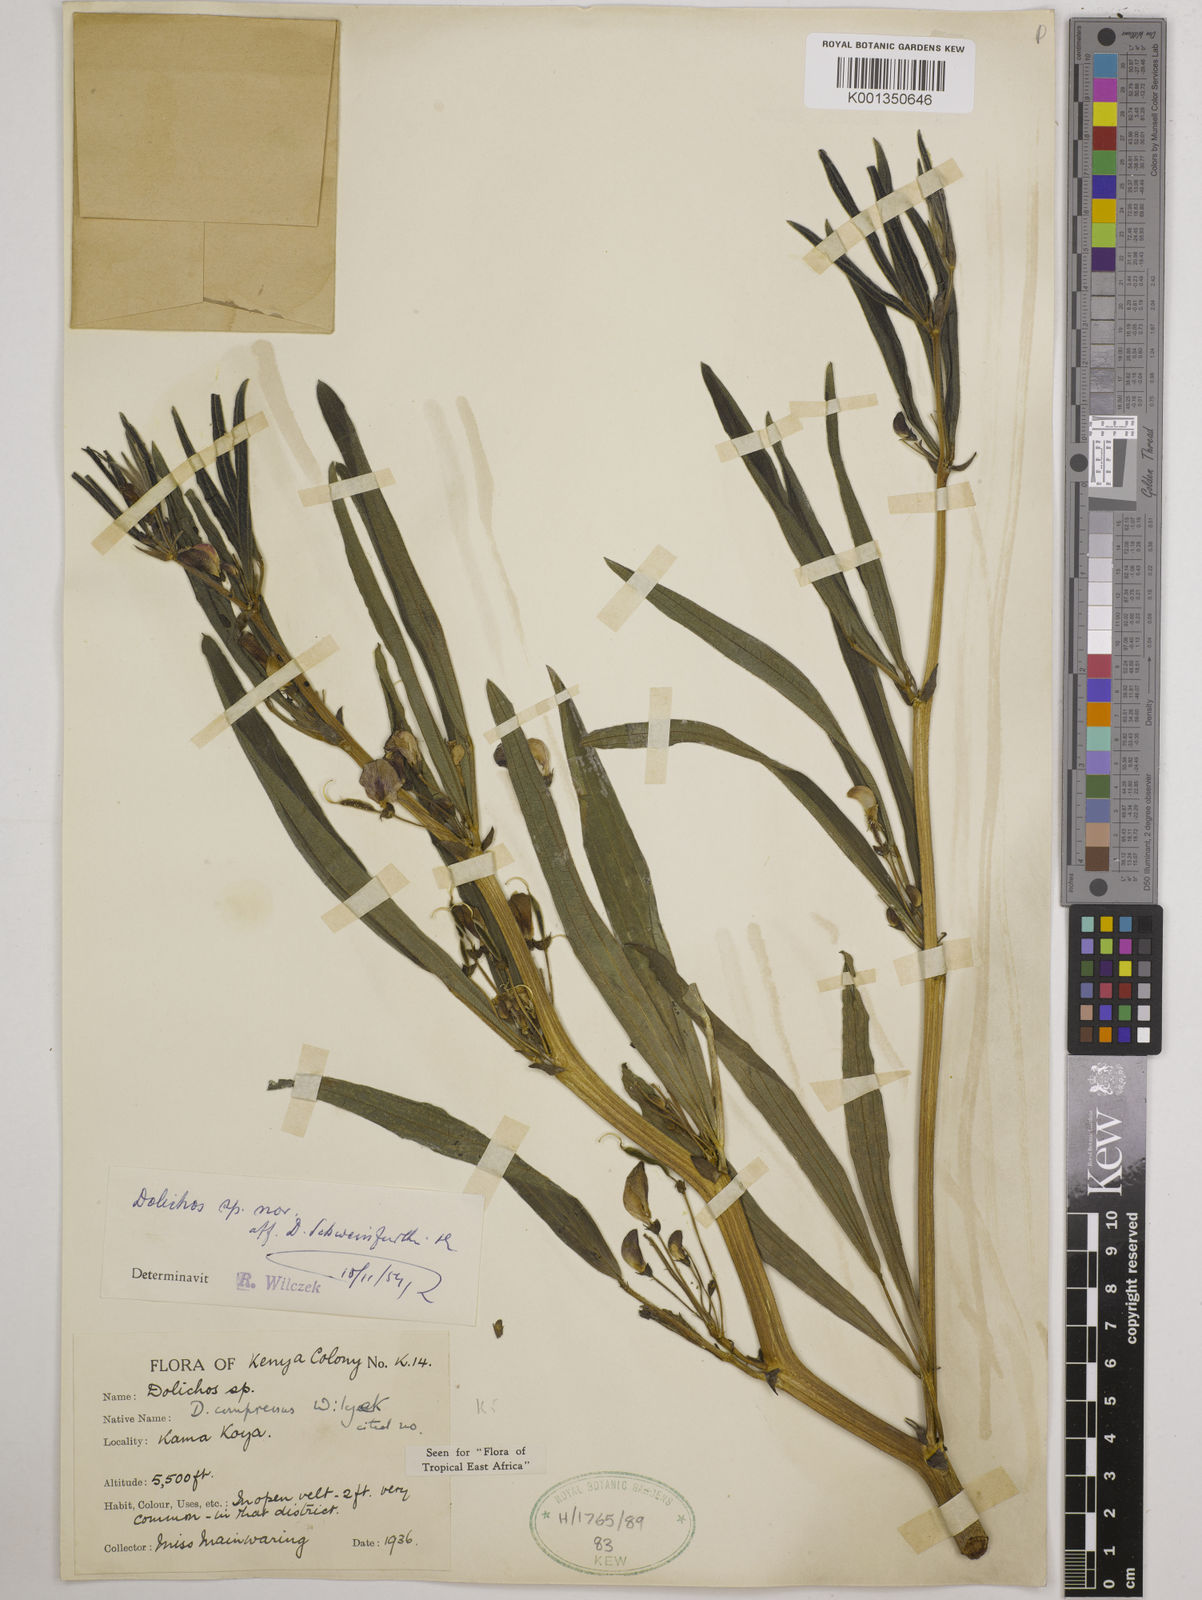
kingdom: Plantae
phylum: Tracheophyta
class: Magnoliopsida
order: Fabales
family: Fabaceae
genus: Dolichos
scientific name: Dolichos compressus
